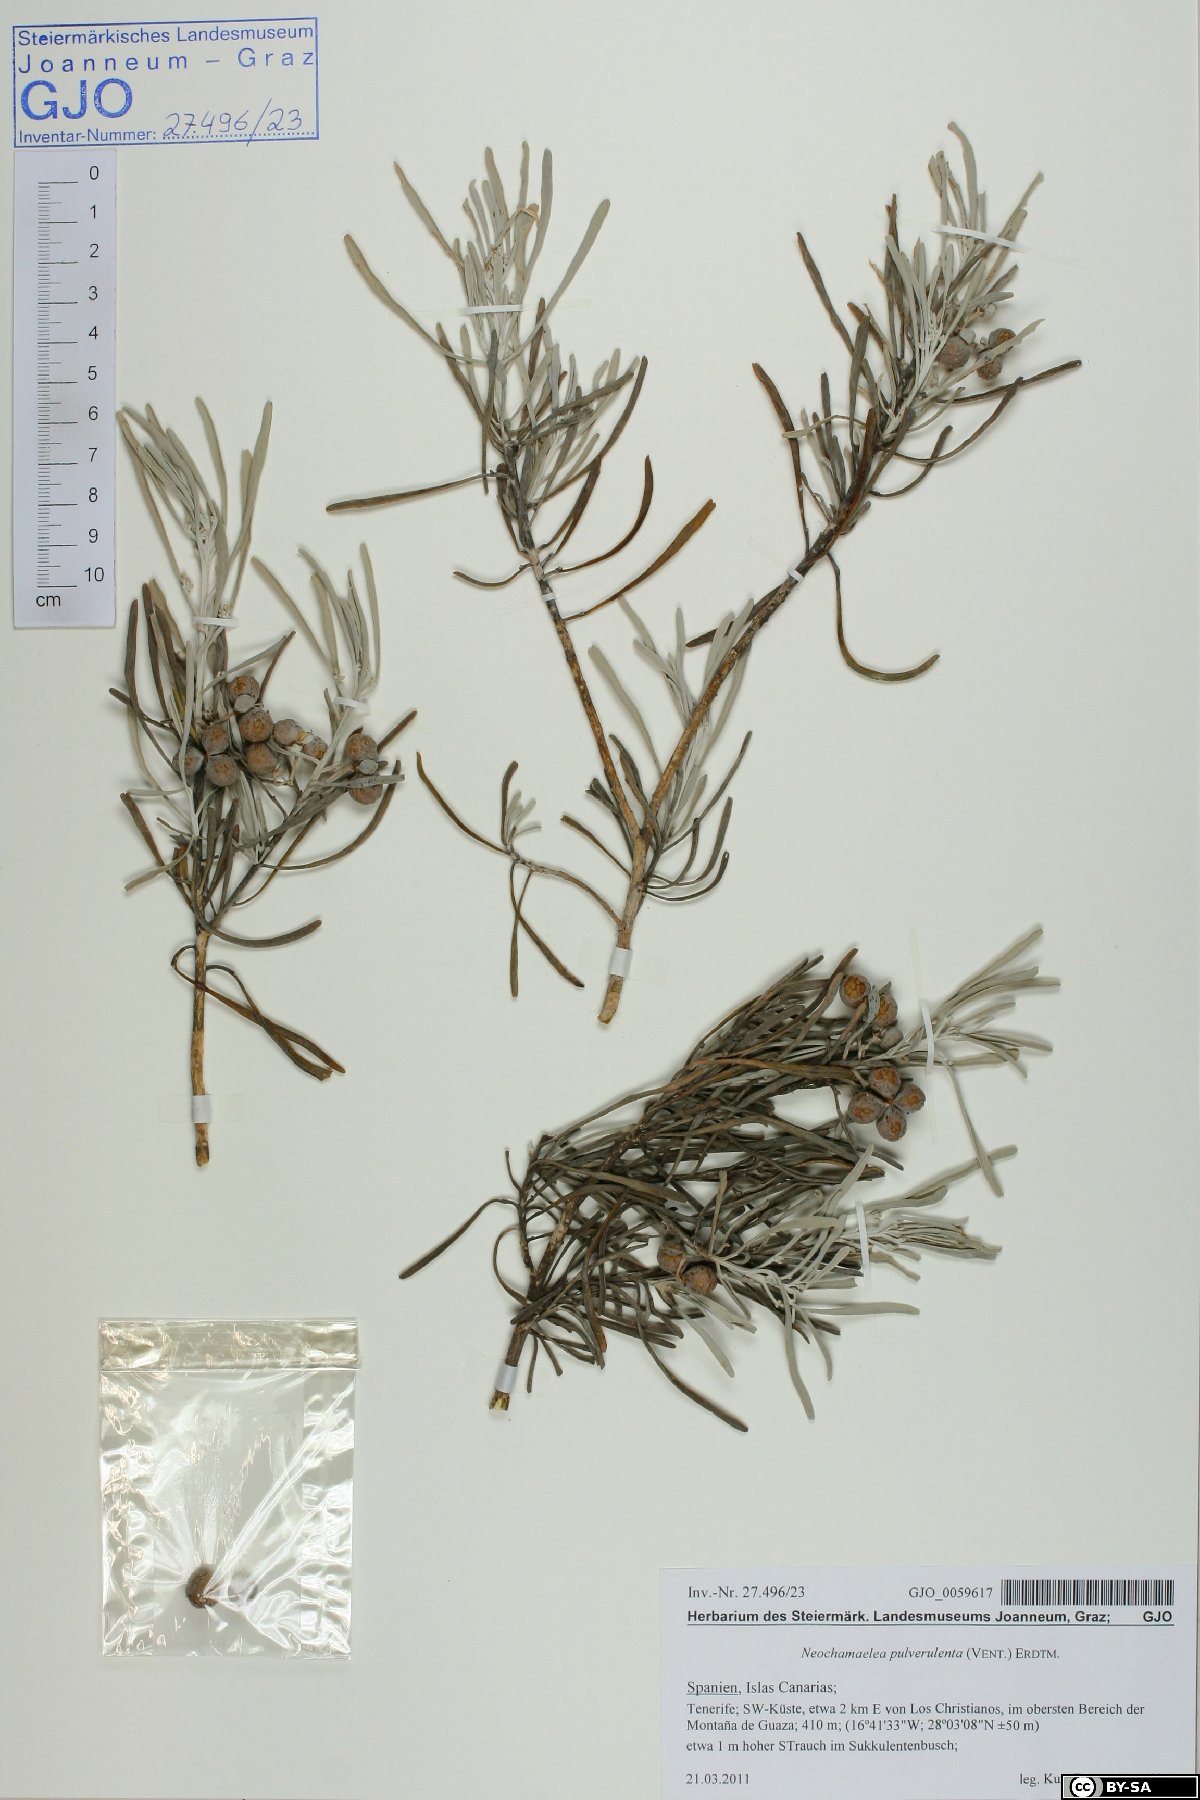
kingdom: Plantae
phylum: Tracheophyta
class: Magnoliopsida
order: Sapindales
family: Rutaceae
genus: Cneorum
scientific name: Cneorum pulverulentum
